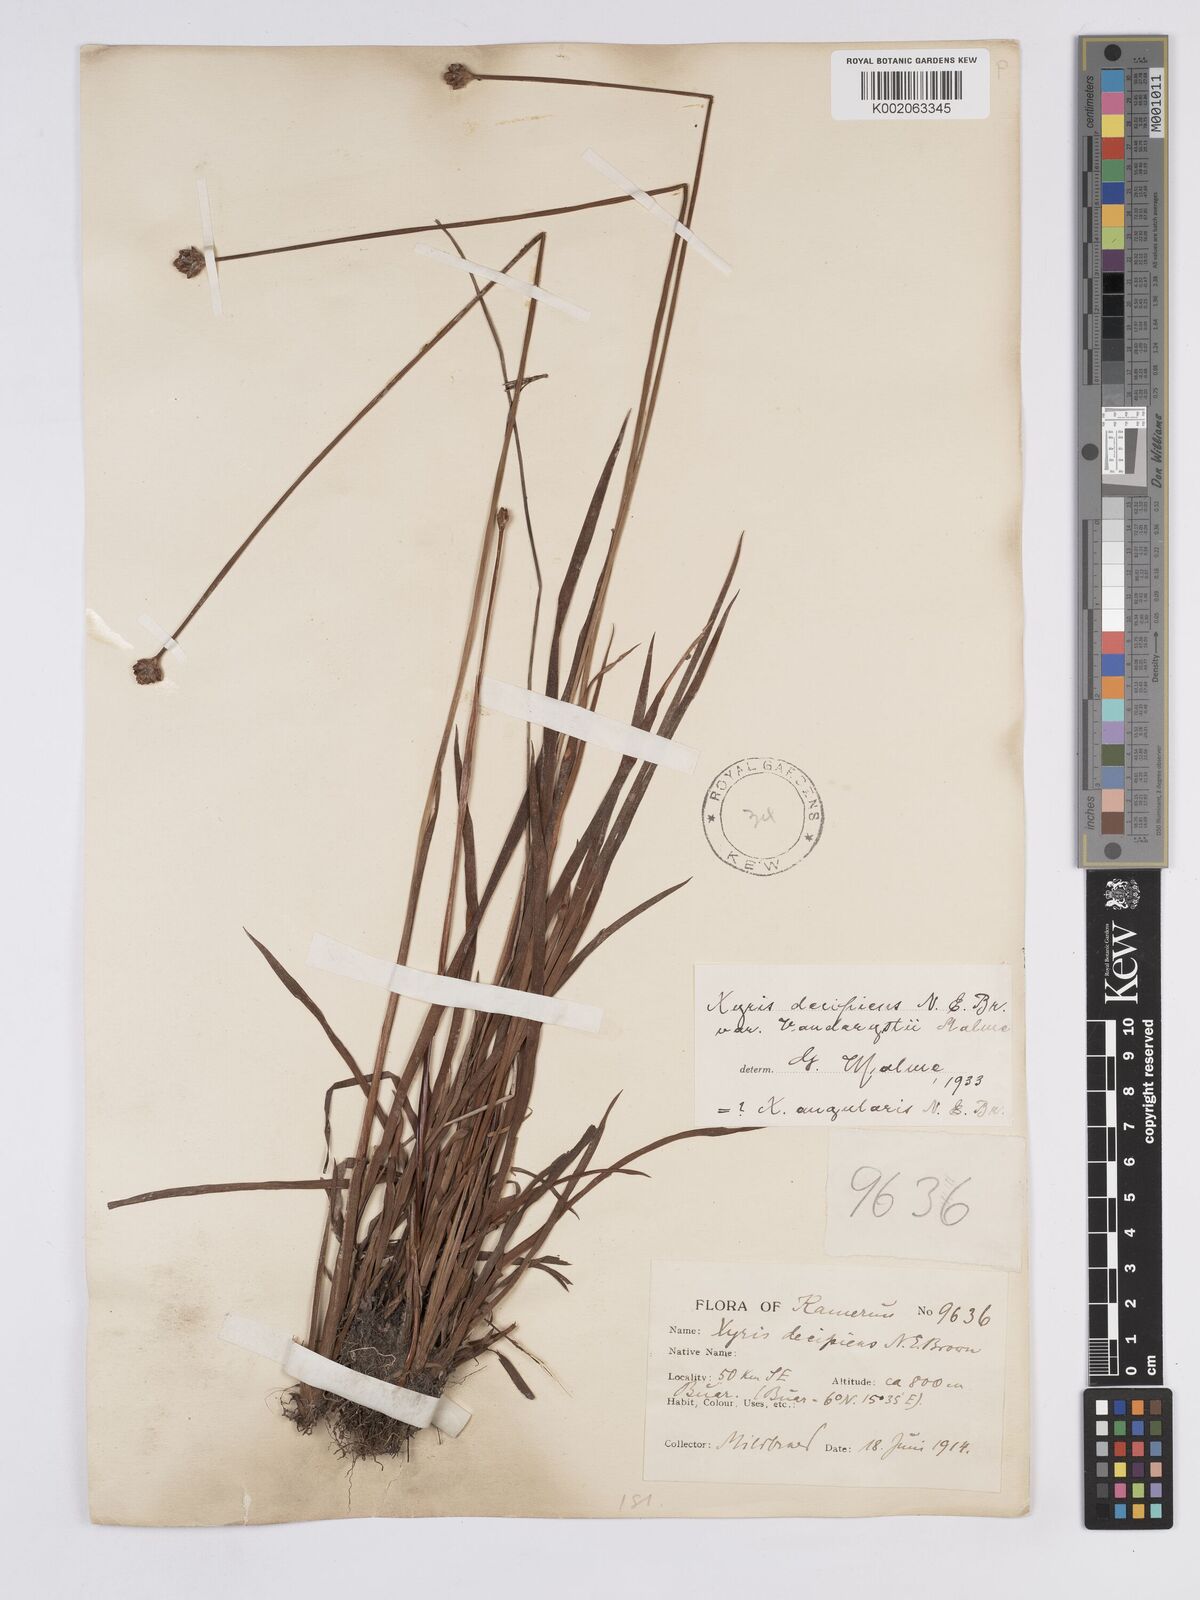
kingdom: Plantae
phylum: Tracheophyta
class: Liliopsida
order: Poales
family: Xyridaceae
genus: Xyris
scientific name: Xyris decipiens
